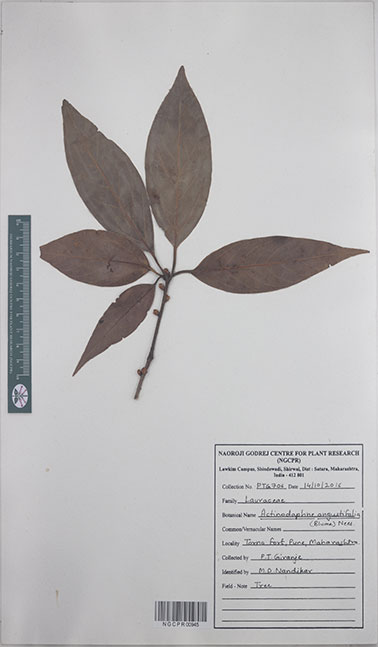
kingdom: Plantae
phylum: Tracheophyta
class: Magnoliopsida
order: Laurales
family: Lauraceae
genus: Actinodaphne
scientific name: Actinodaphne angustifolia
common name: Pisatree
